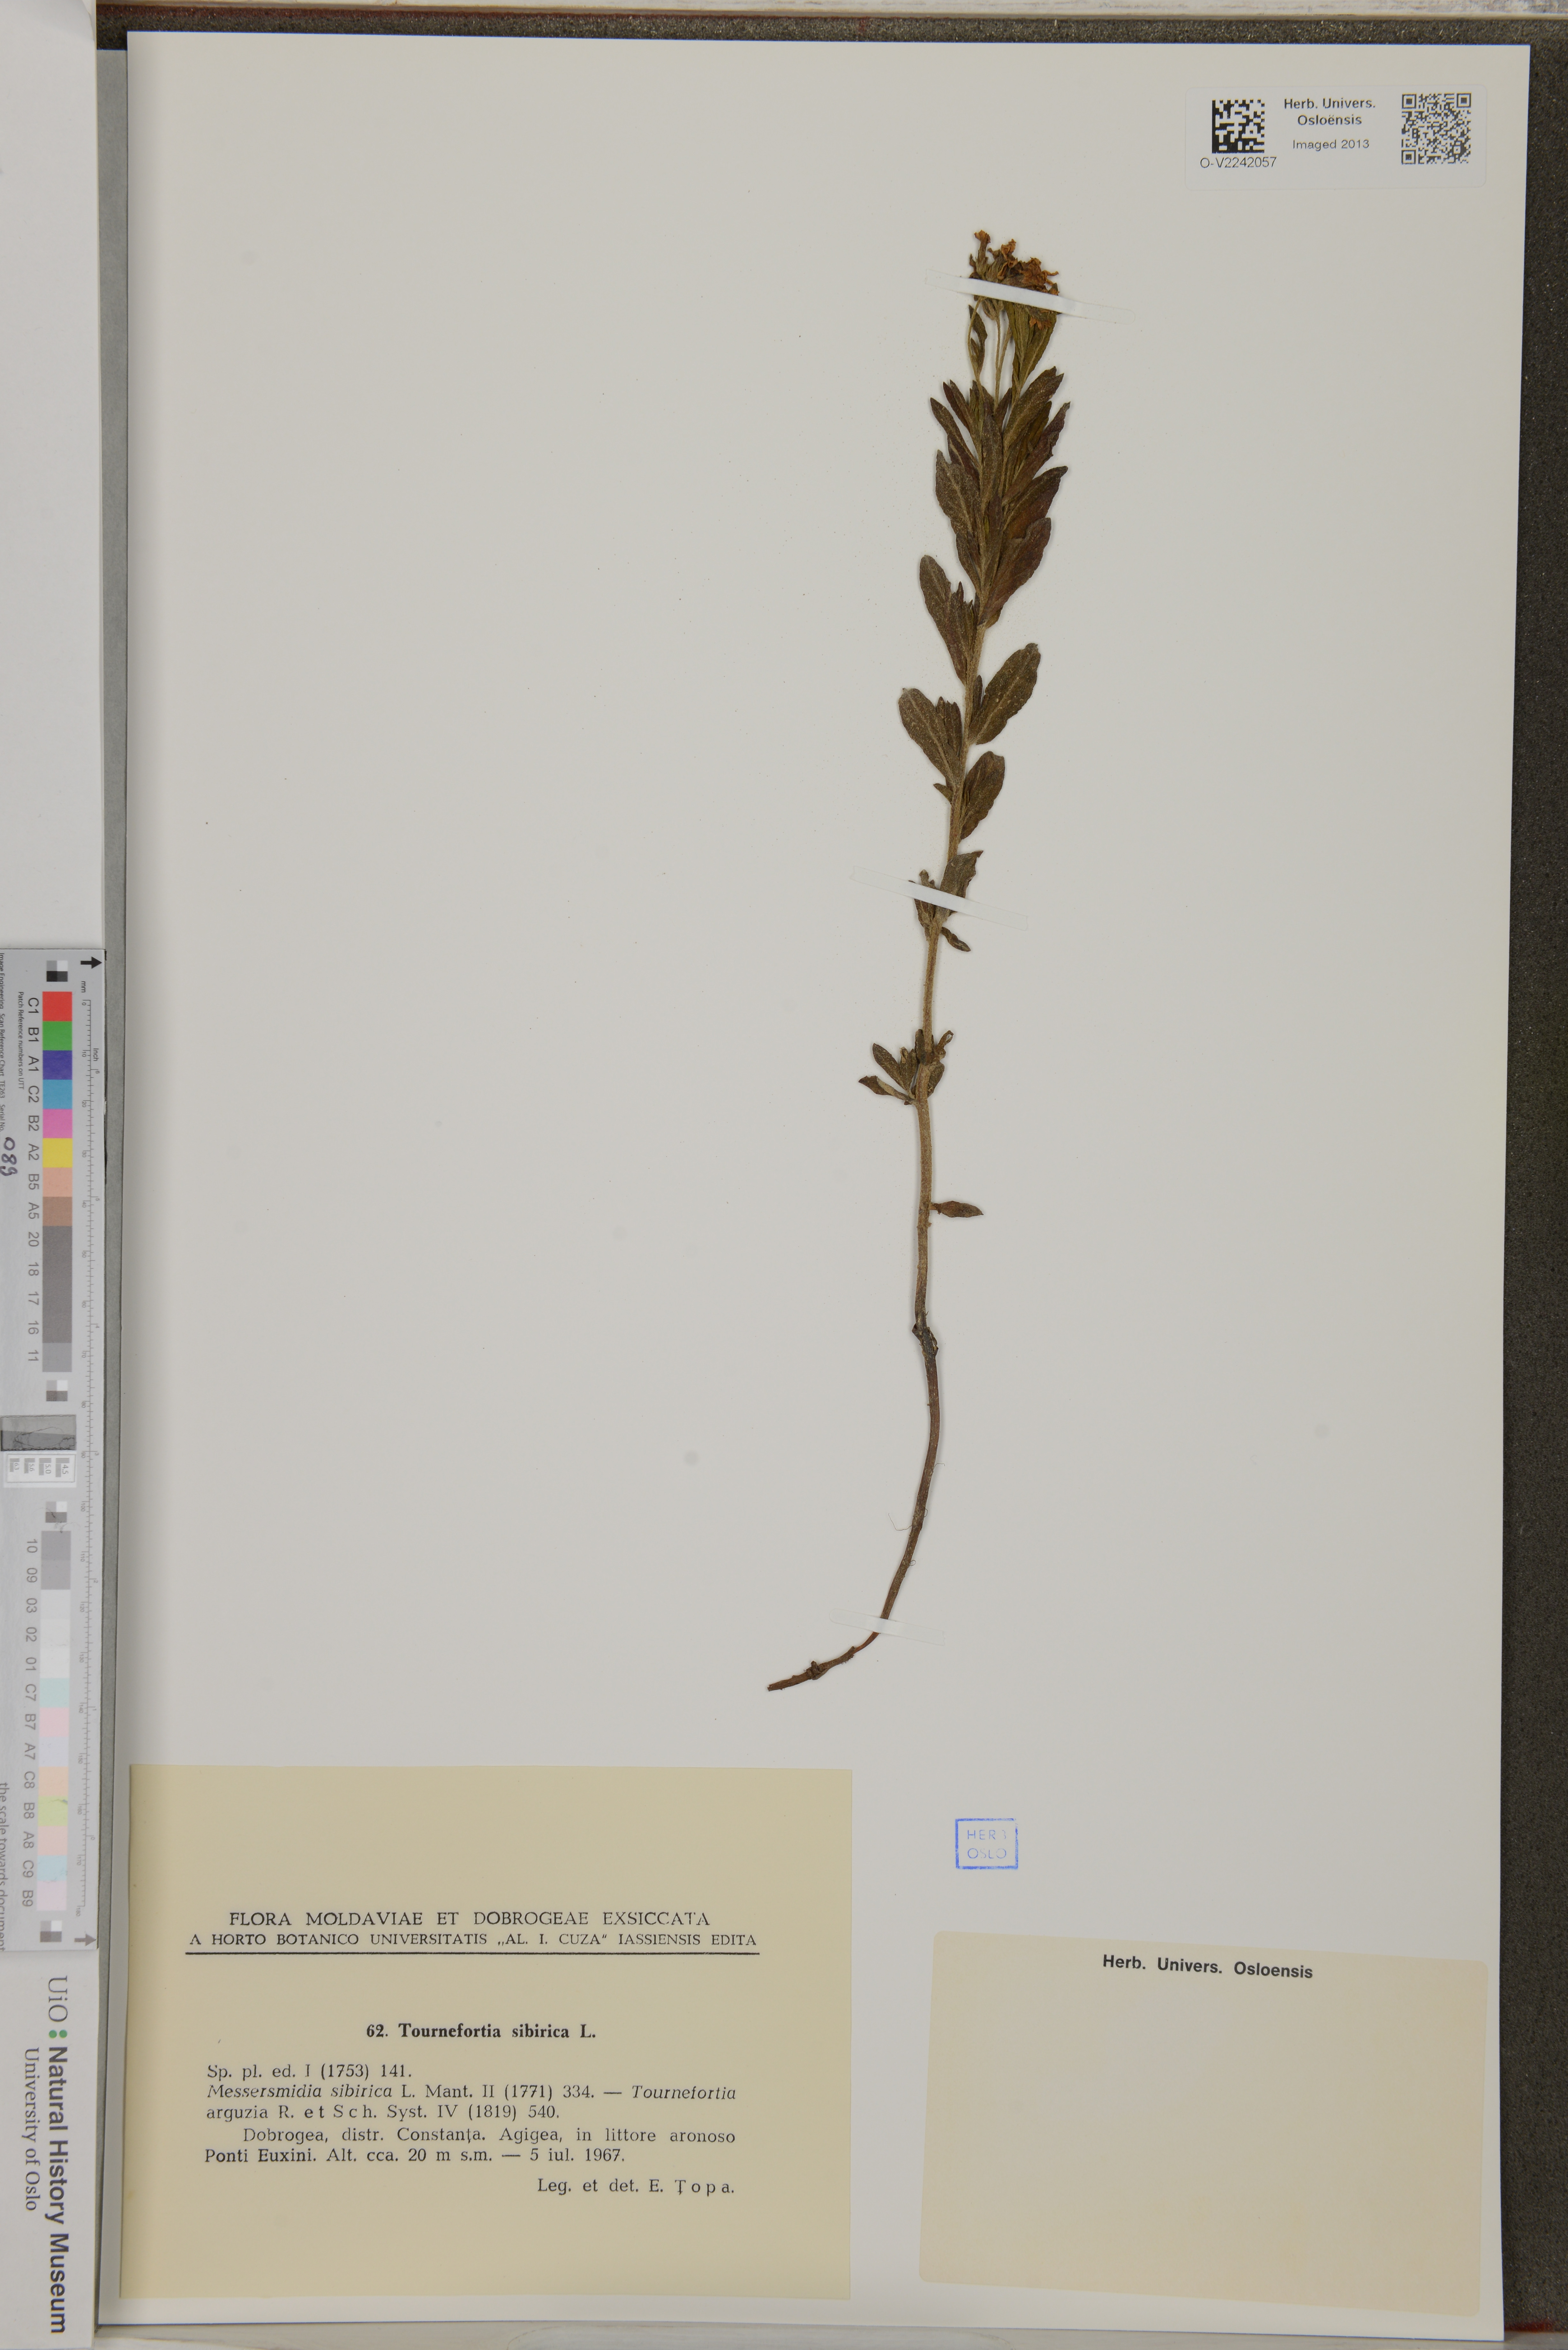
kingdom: Plantae
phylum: Tracheophyta
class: Magnoliopsida
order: Boraginales
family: Heliotropiaceae
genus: Tournefortia
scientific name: Tournefortia sibirica
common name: Siberian sea rosemary
